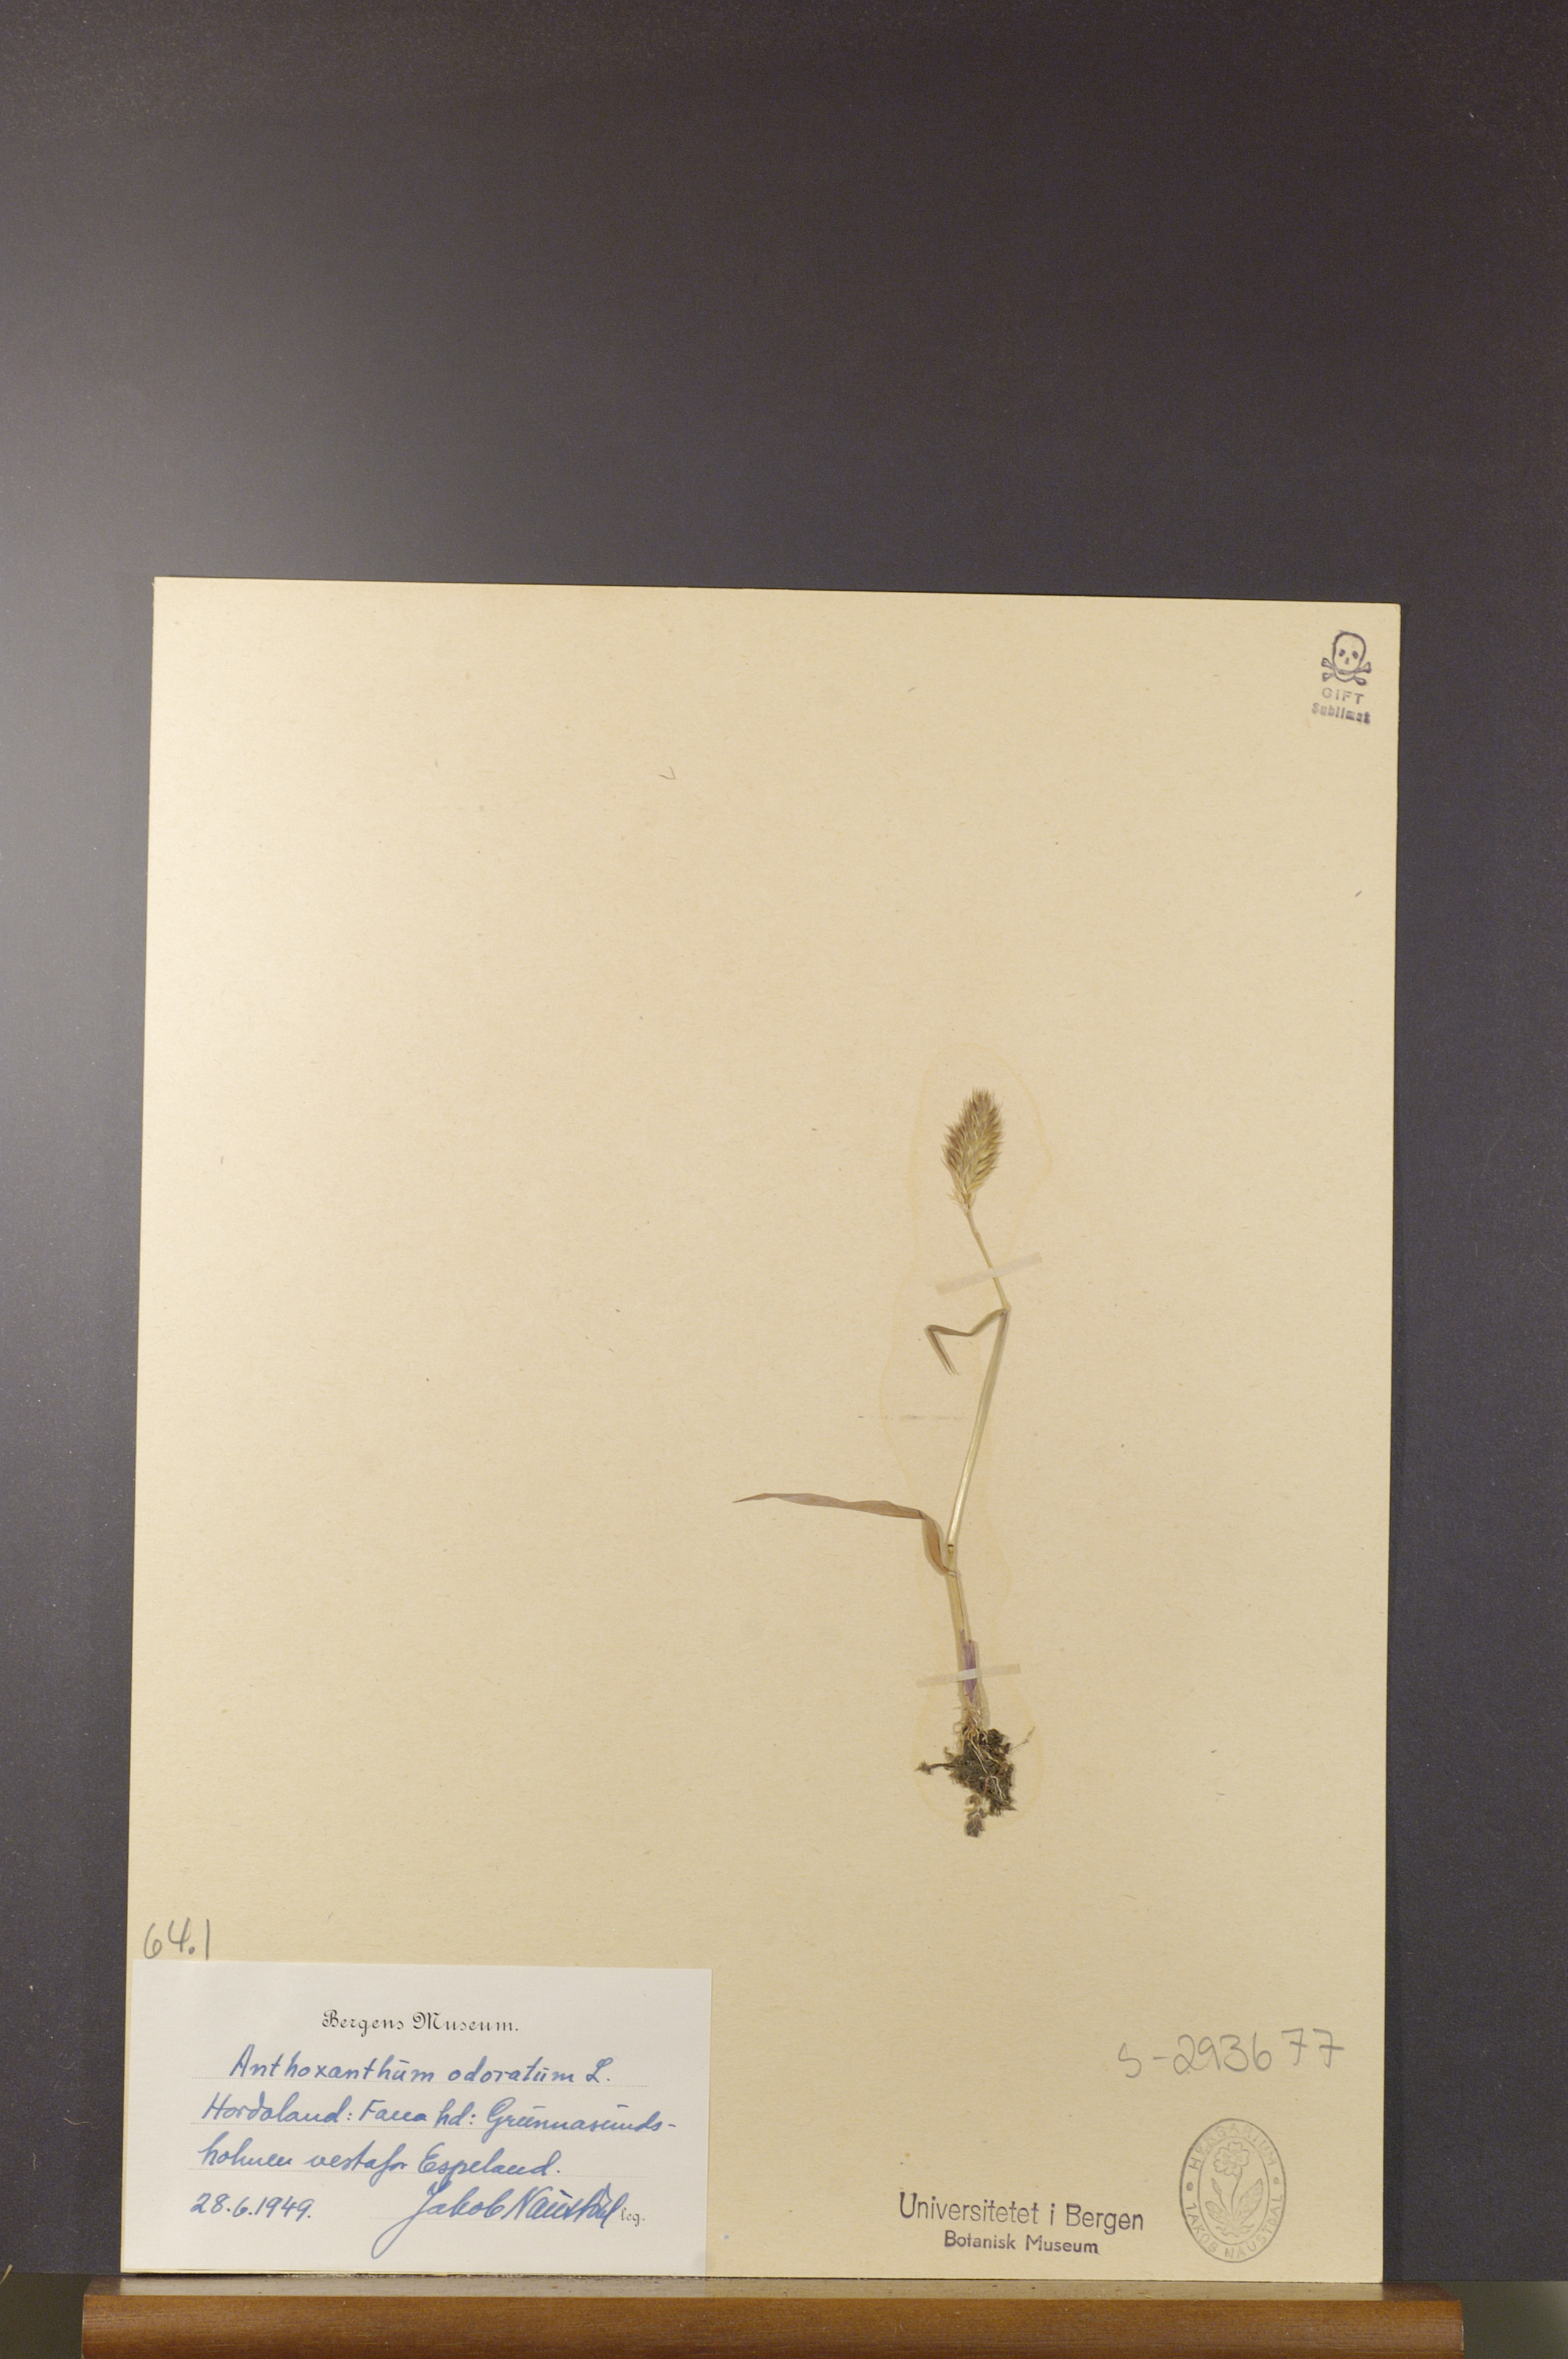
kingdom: Plantae
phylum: Tracheophyta
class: Liliopsida
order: Poales
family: Poaceae
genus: Anthoxanthum
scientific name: Anthoxanthum odoratum
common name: Sweet vernalgrass
